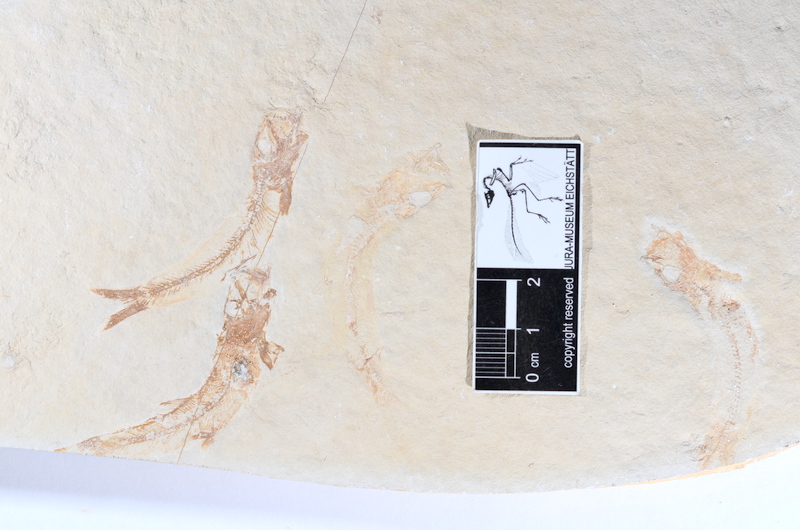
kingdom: Animalia
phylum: Chordata
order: Salmoniformes
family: Orthogonikleithridae
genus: Leptolepides
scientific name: Leptolepides sprattiformis
